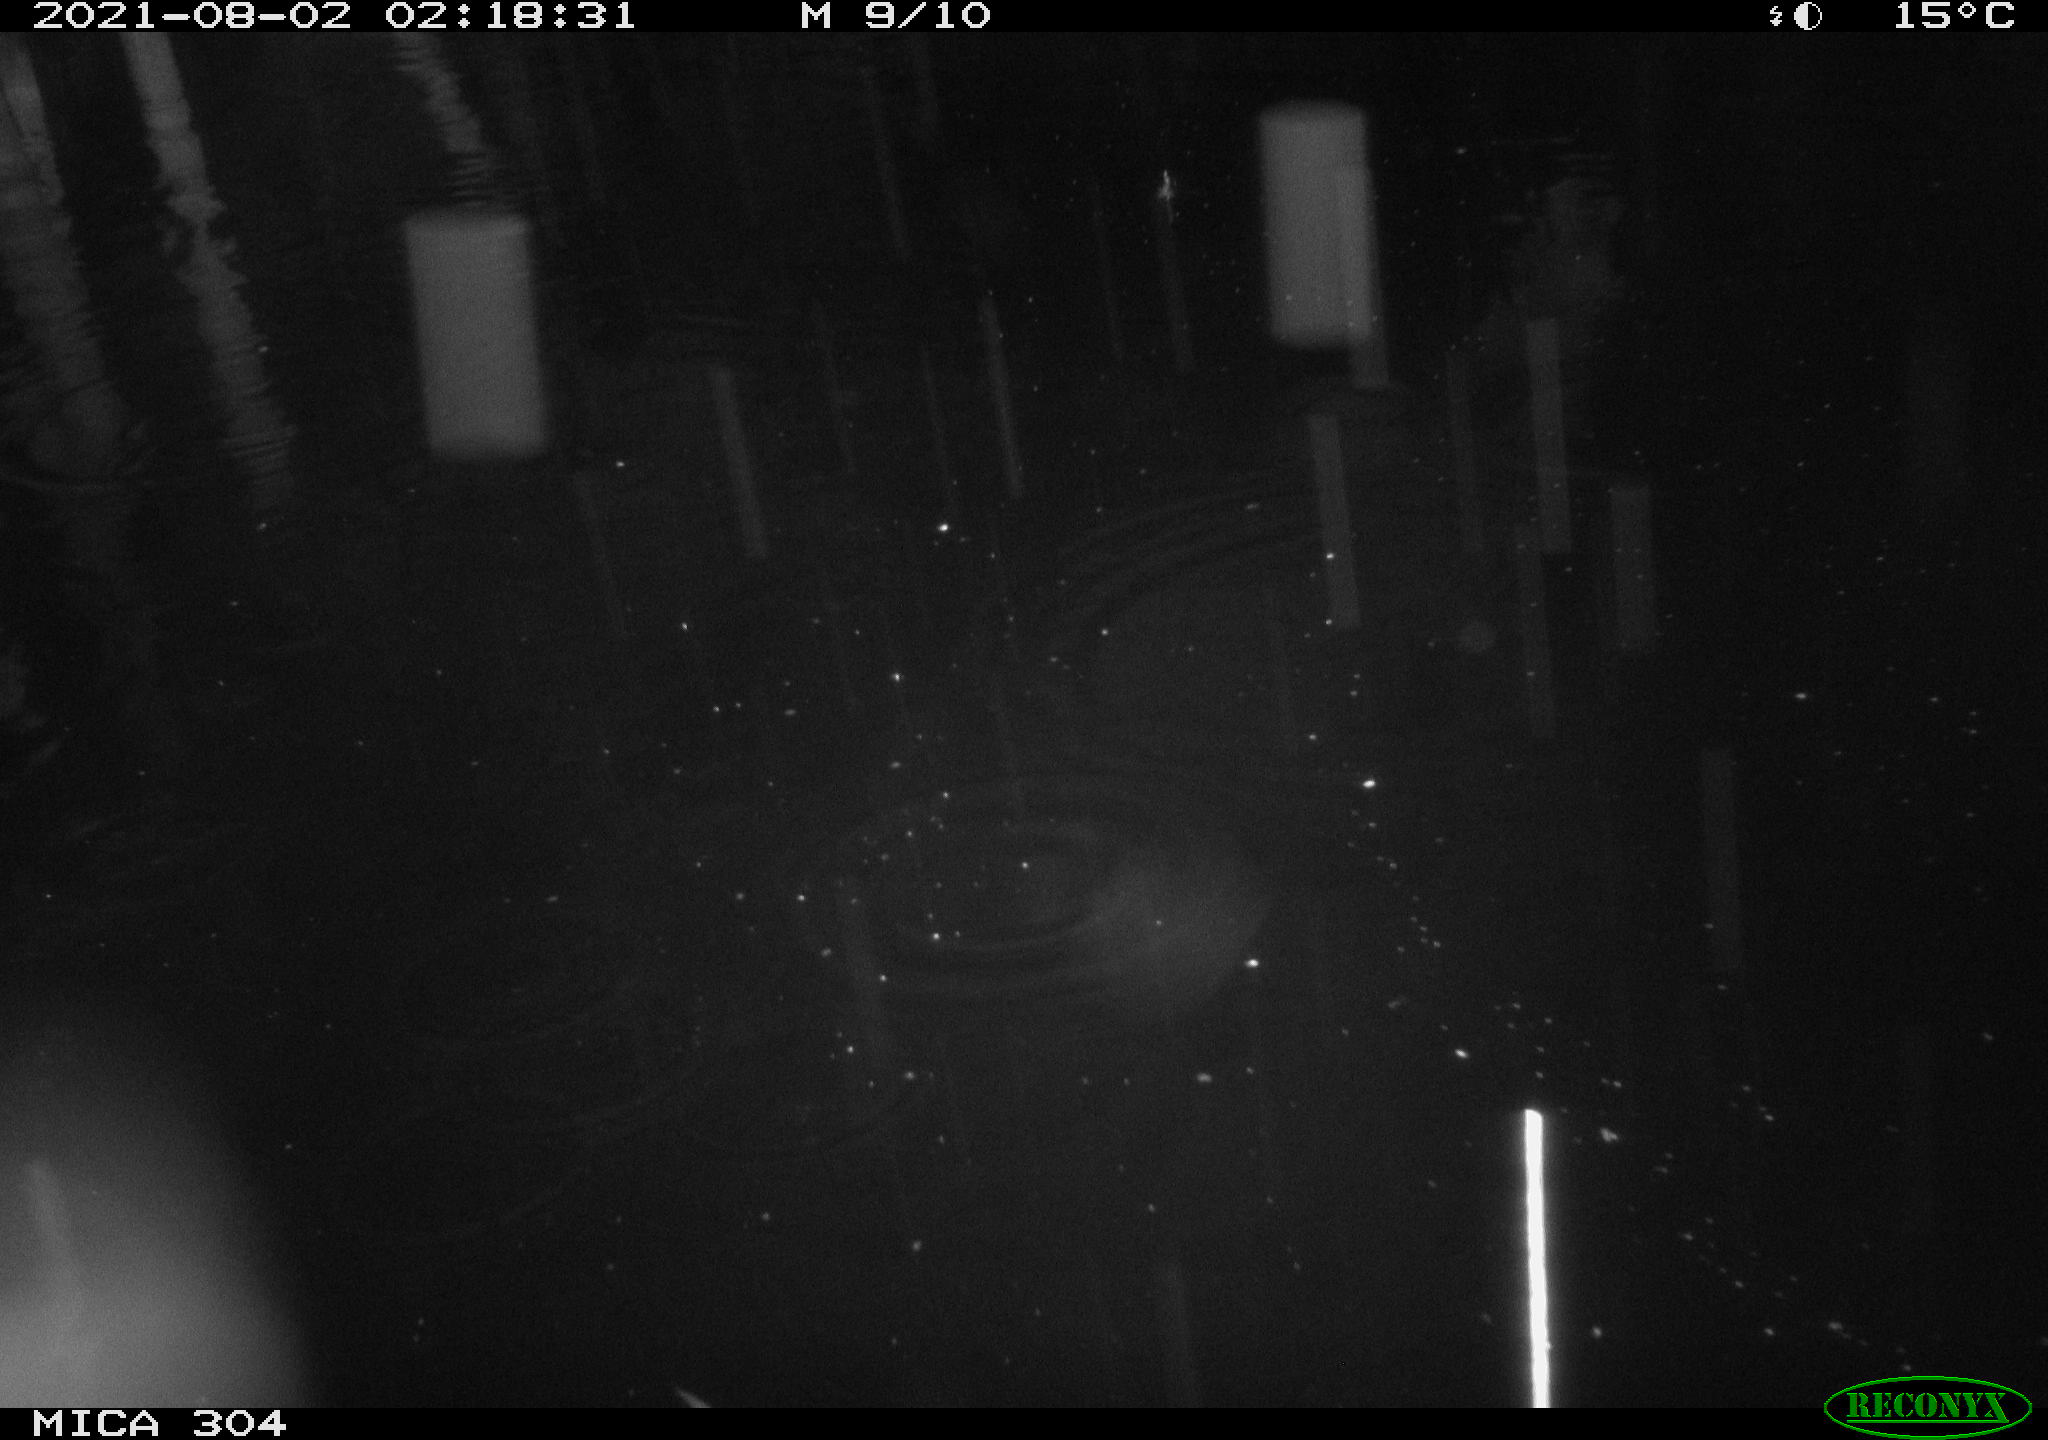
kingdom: Animalia
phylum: Chordata
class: Mammalia
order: Rodentia
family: Muridae
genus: Rattus
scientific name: Rattus norvegicus
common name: Brown rat
